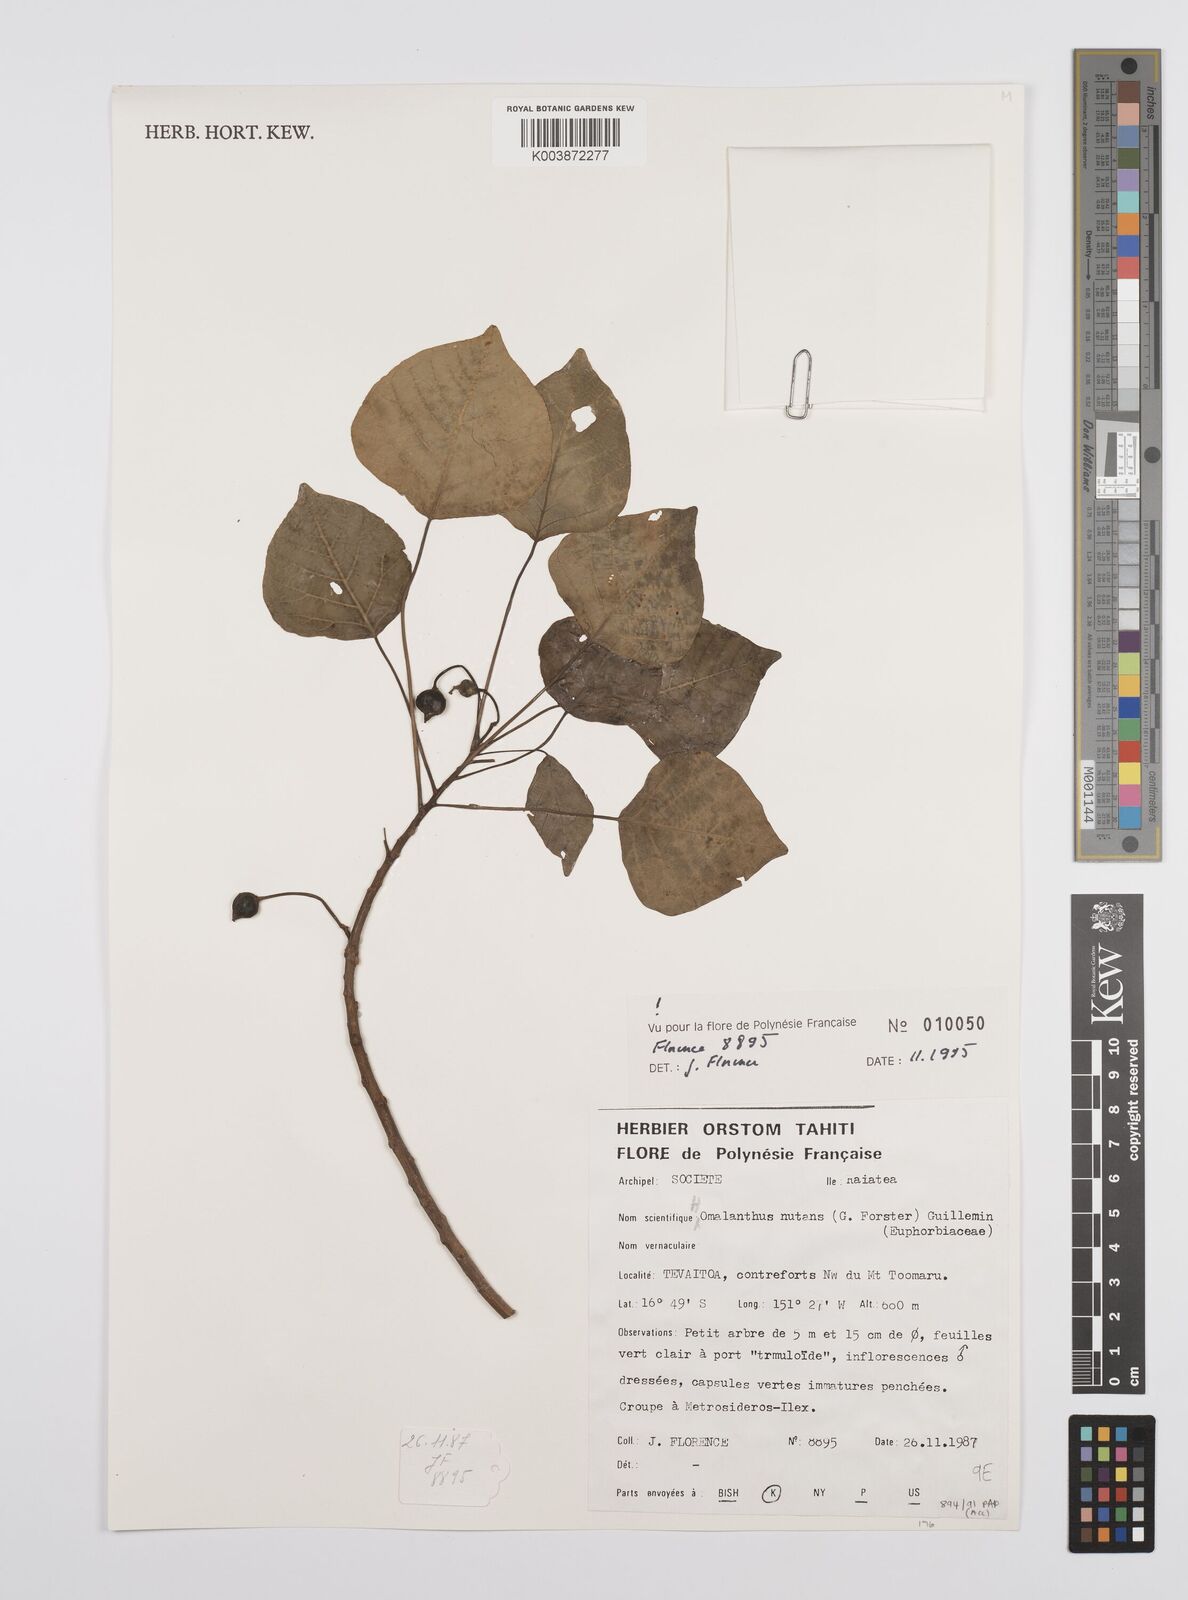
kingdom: Plantae
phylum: Tracheophyta
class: Magnoliopsida
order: Malpighiales
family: Euphorbiaceae
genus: Homalanthus
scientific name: Homalanthus nutans
